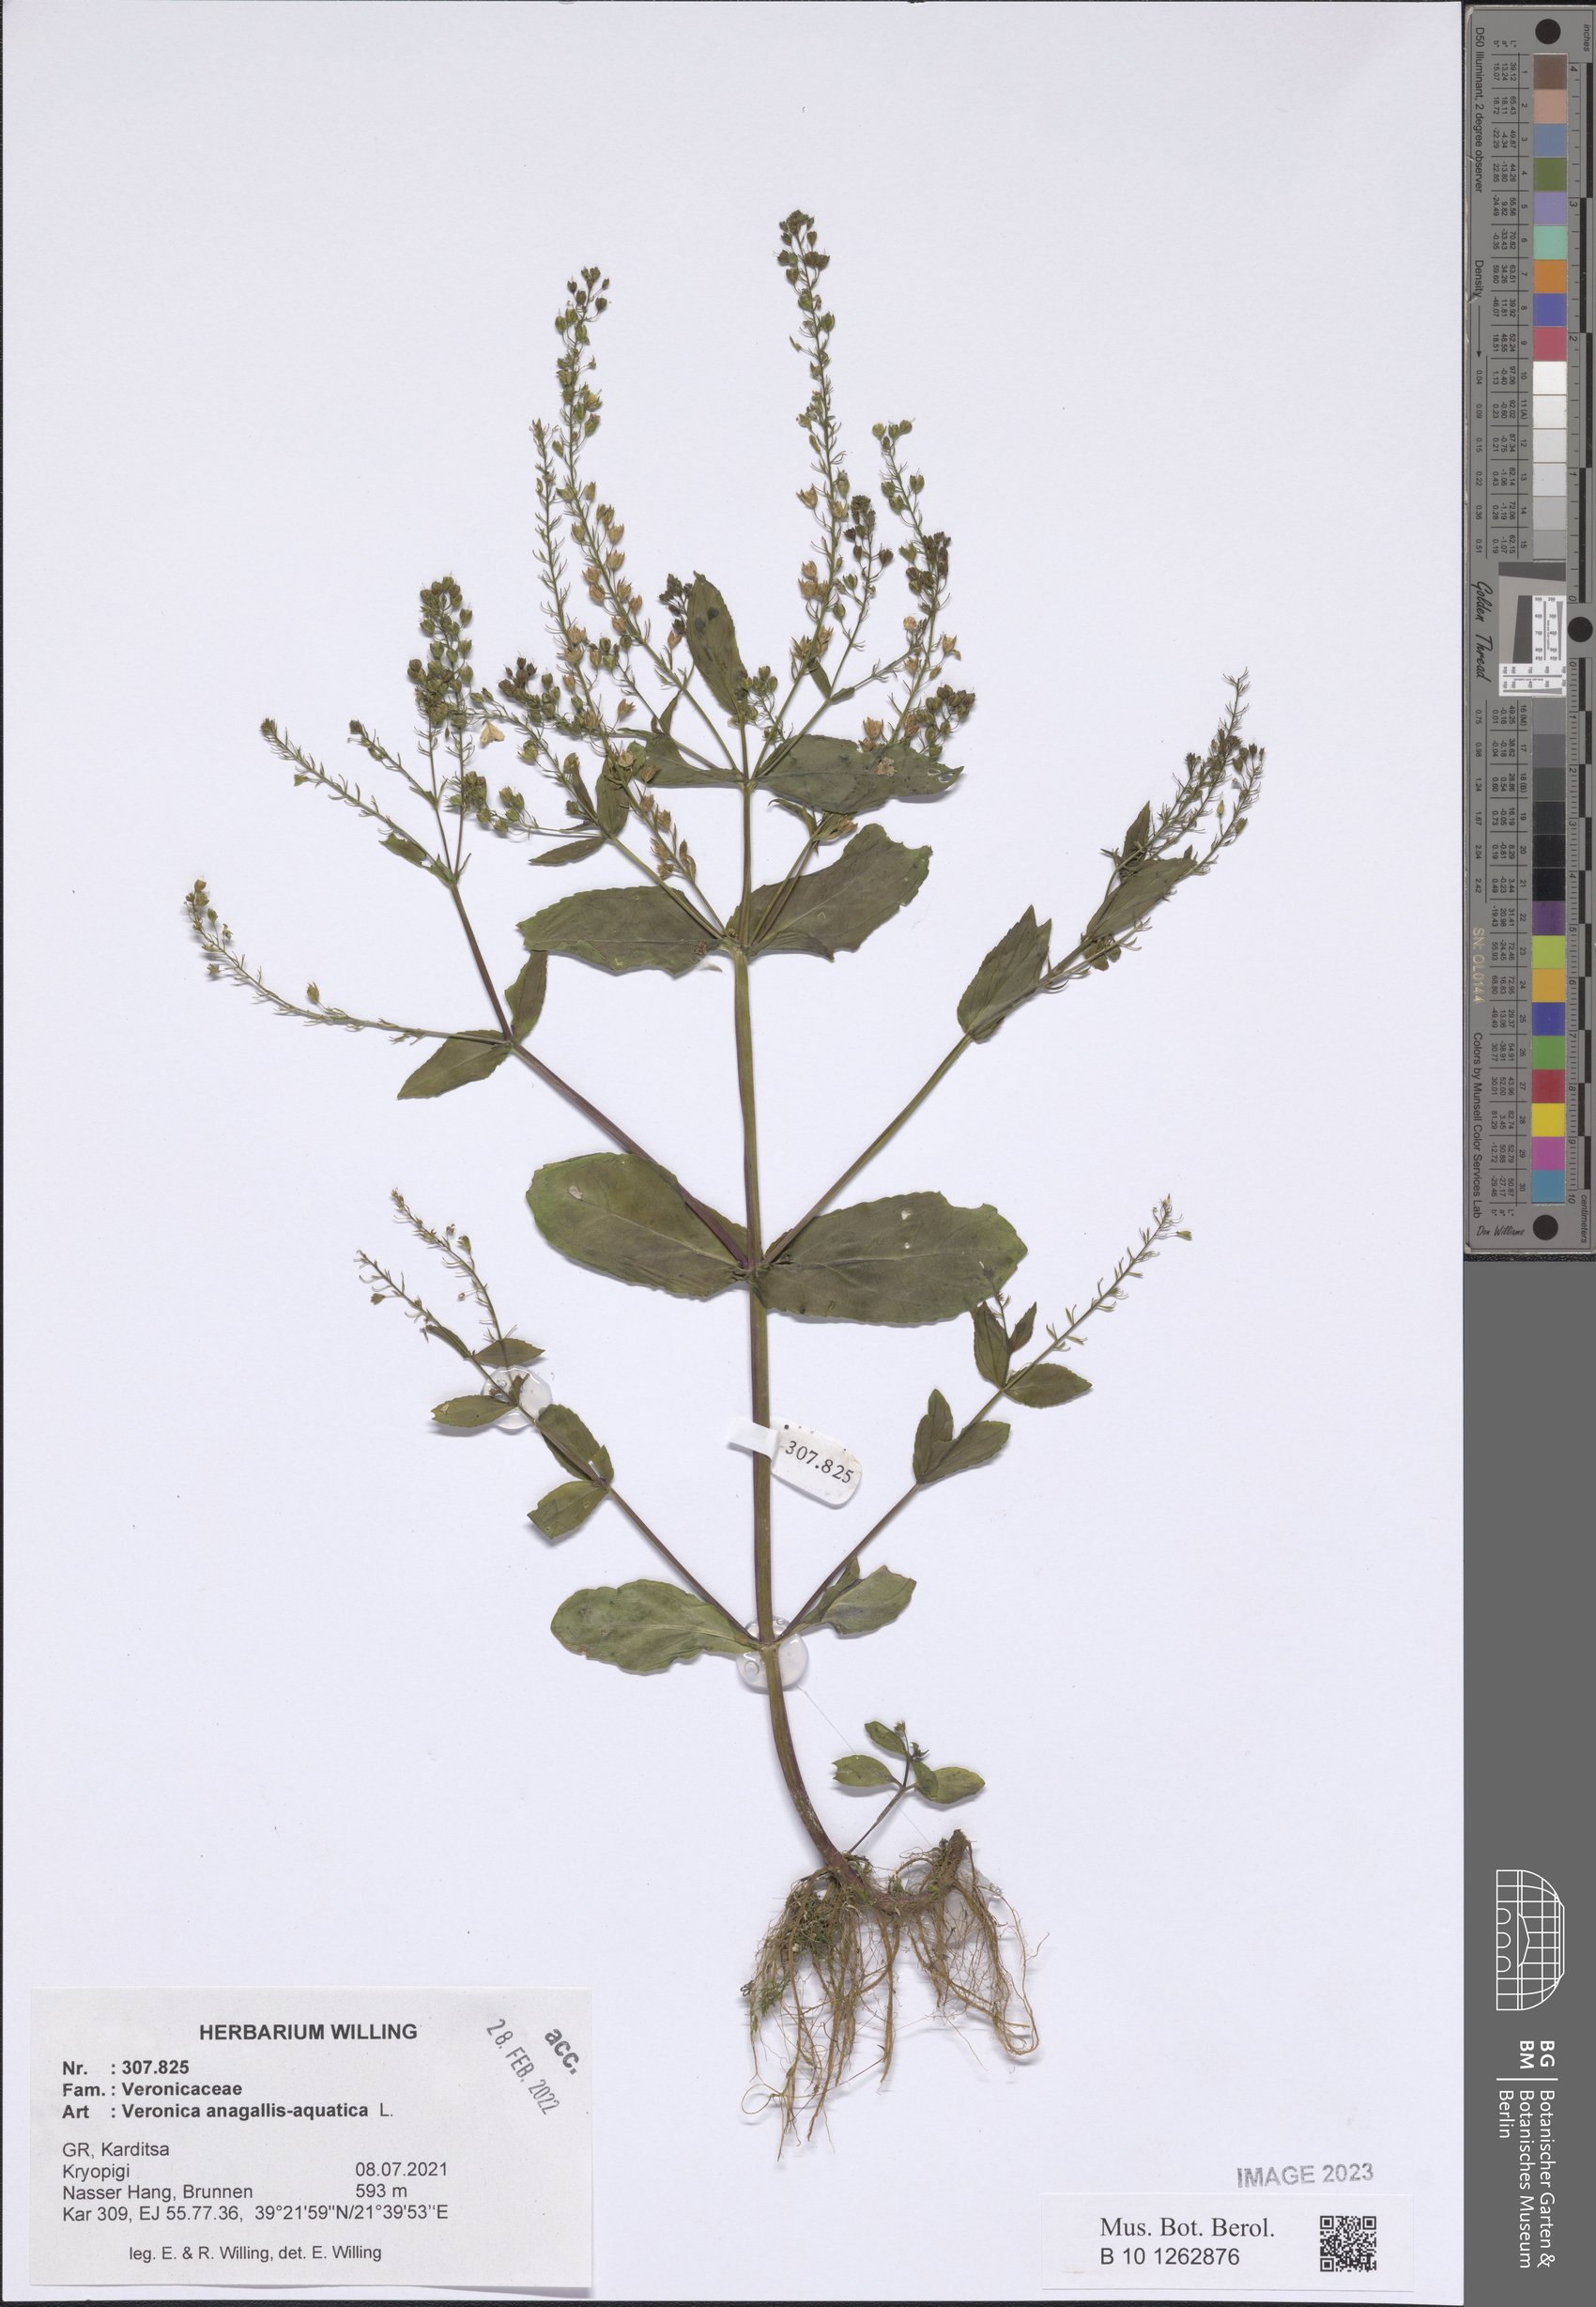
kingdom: Plantae
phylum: Tracheophyta
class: Magnoliopsida
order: Lamiales
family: Plantaginaceae
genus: Veronica
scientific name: Veronica anagallis-aquatica
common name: Water speedwell
